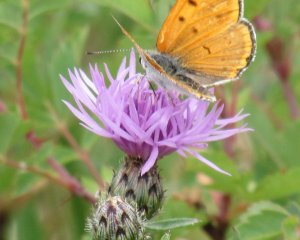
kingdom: Animalia
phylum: Arthropoda
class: Insecta
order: Lepidoptera
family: Sesiidae
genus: Sesia
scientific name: Sesia Lycaena rubidus
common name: Ruddy Copper
